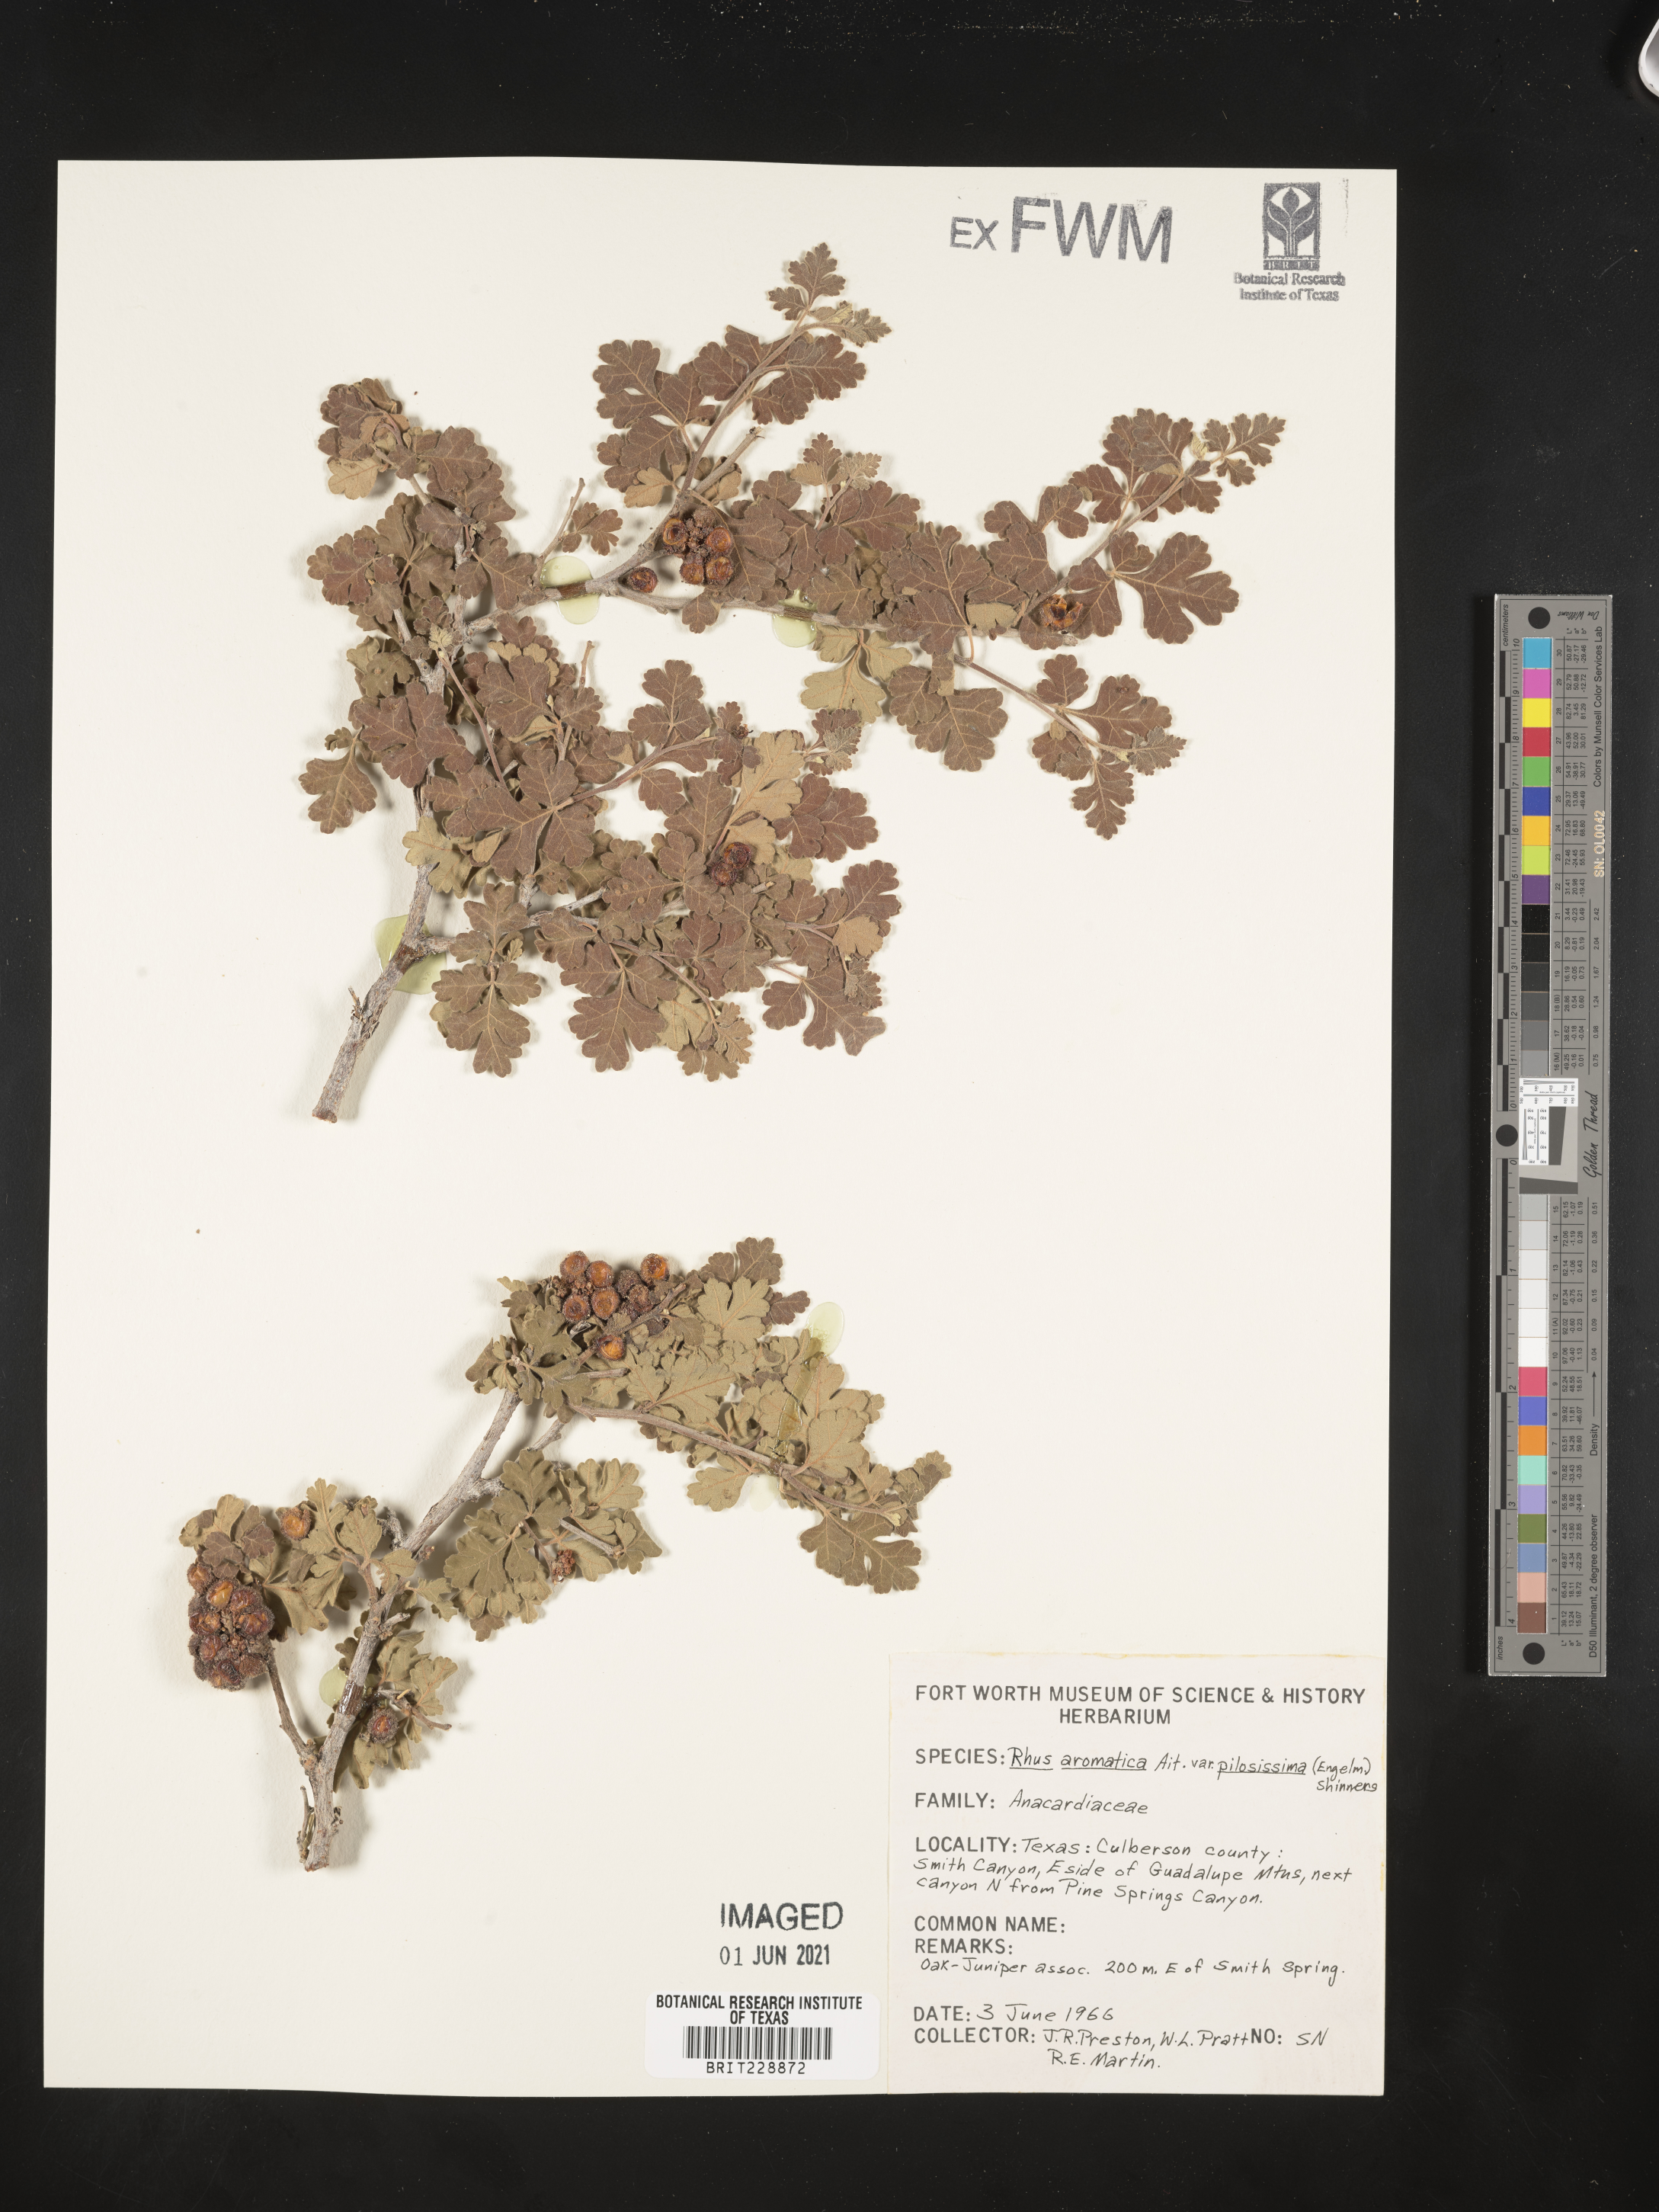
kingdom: Plantae
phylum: Tracheophyta
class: Magnoliopsida
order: Sapindales
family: Anacardiaceae
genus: Rhus
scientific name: Rhus trilobata
